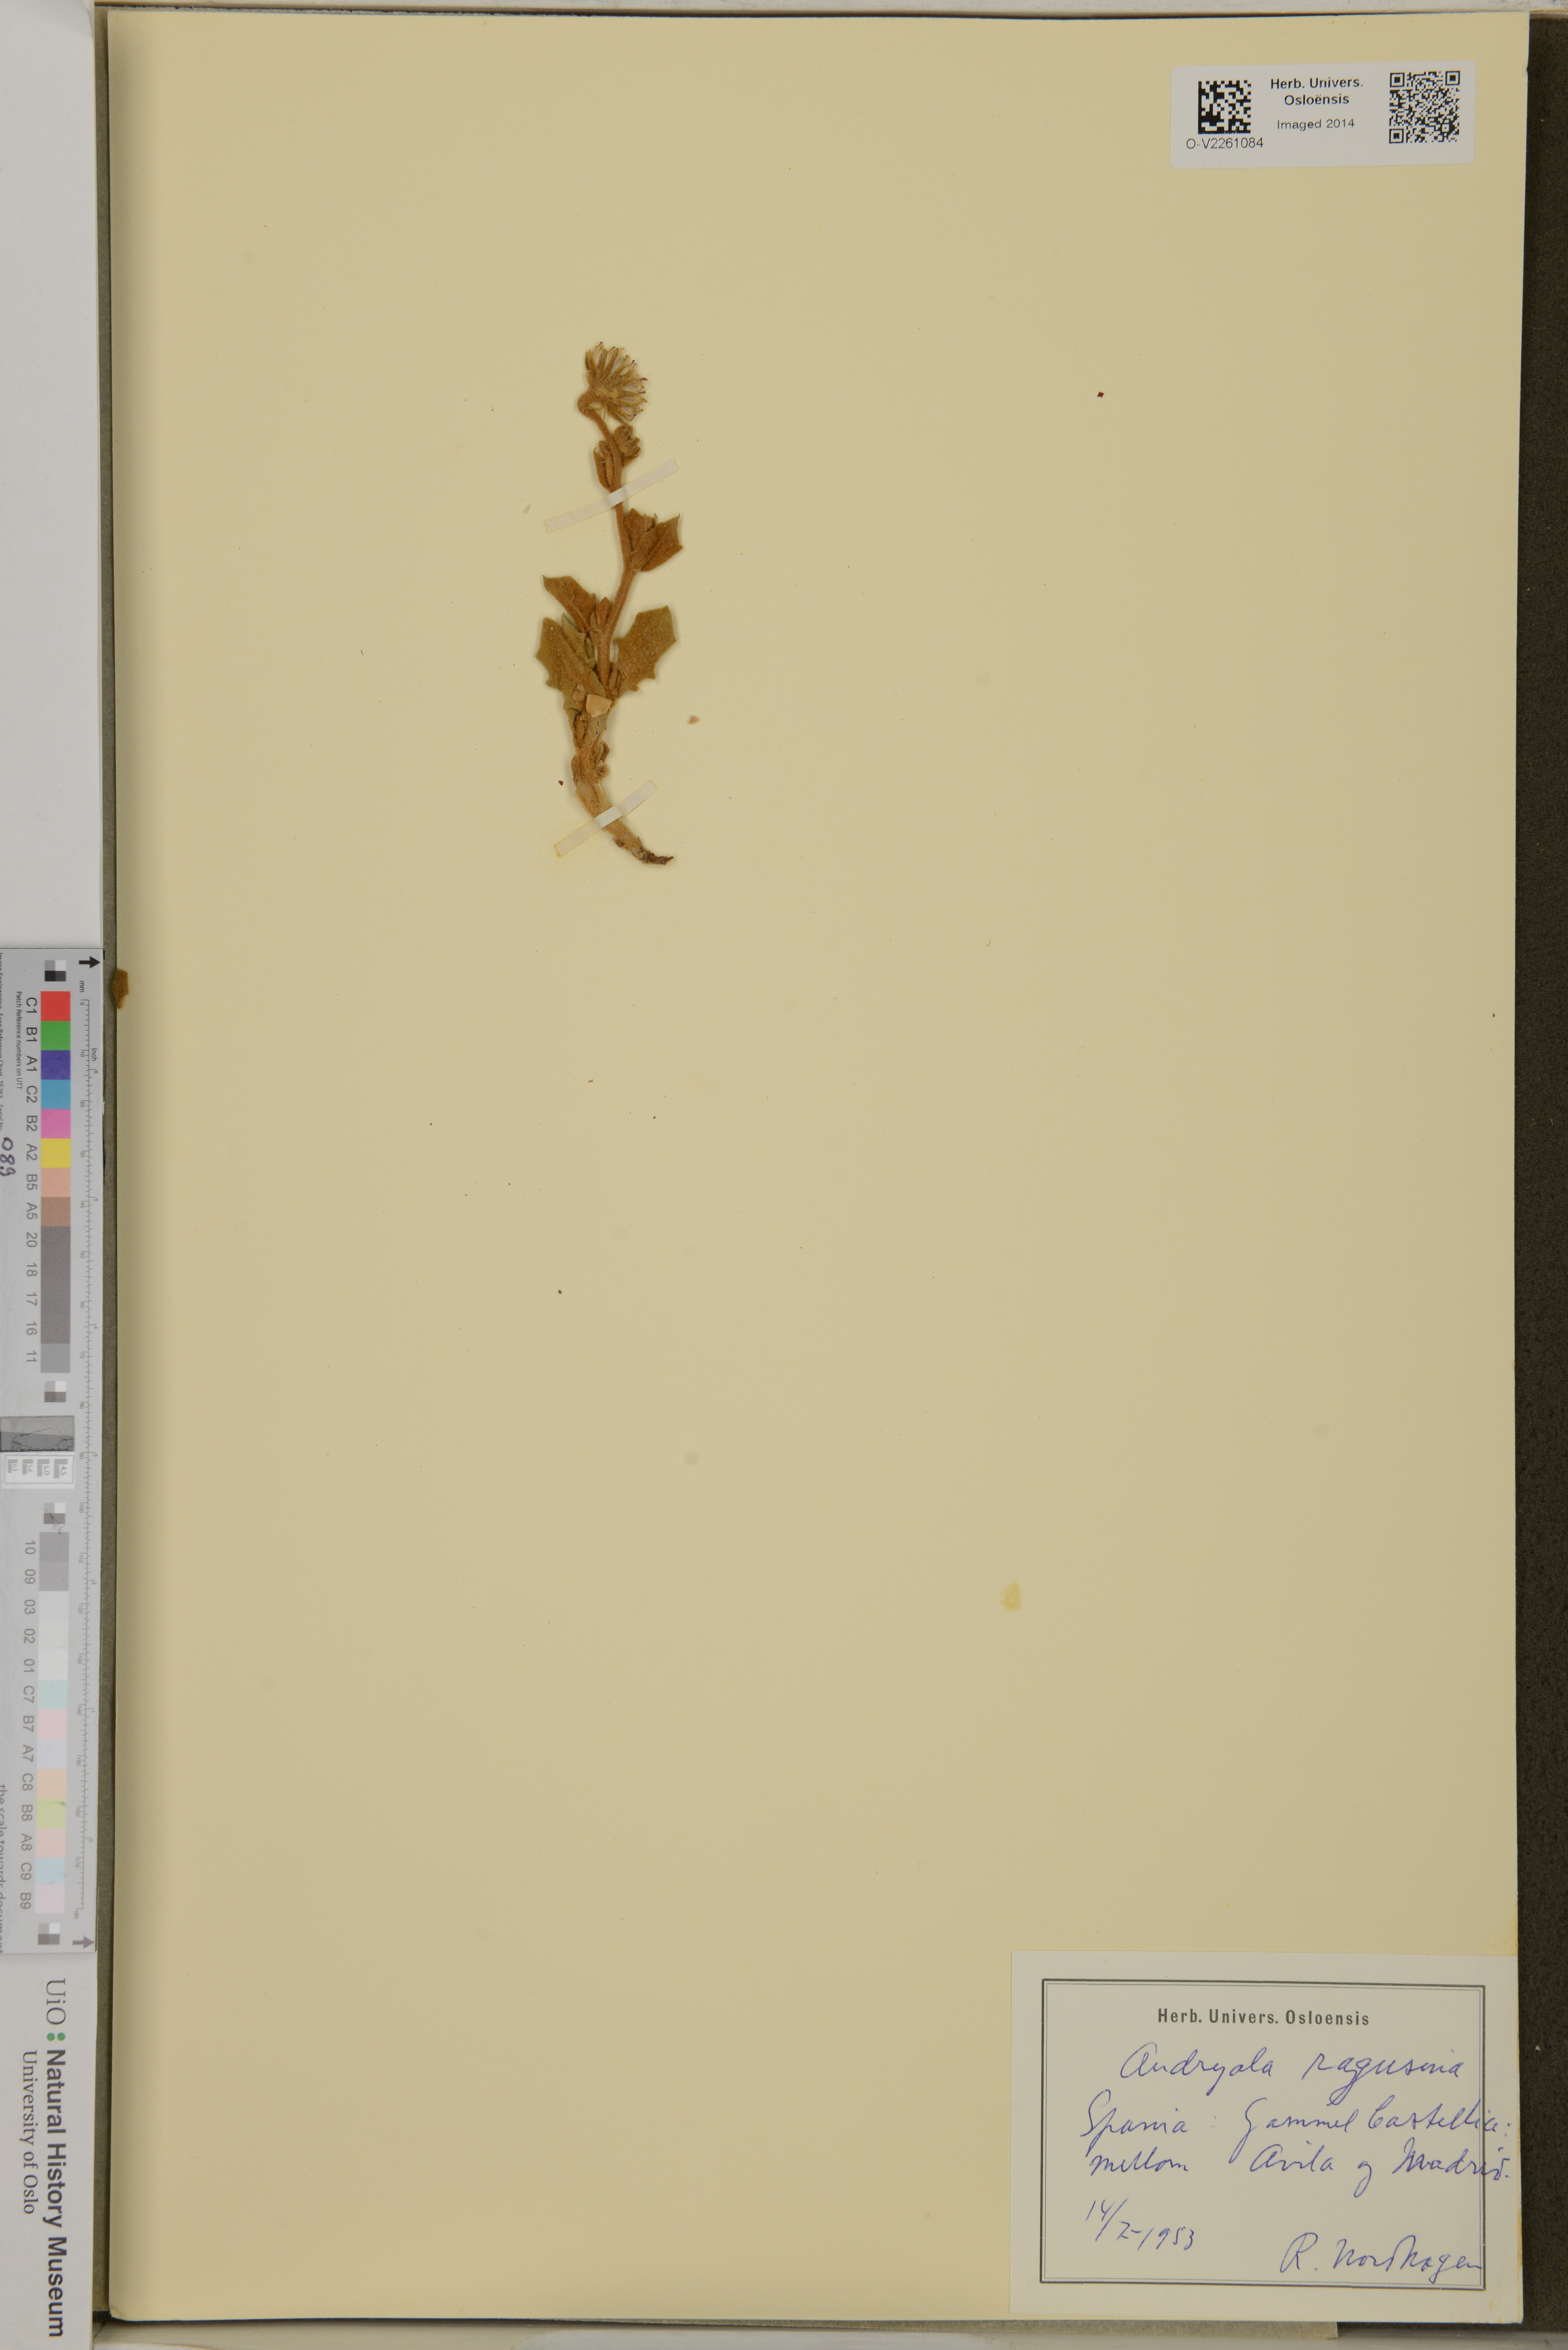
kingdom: Plantae
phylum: Tracheophyta
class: Magnoliopsida
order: Asterales
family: Asteraceae
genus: Andryala
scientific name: Andryala ragusina
